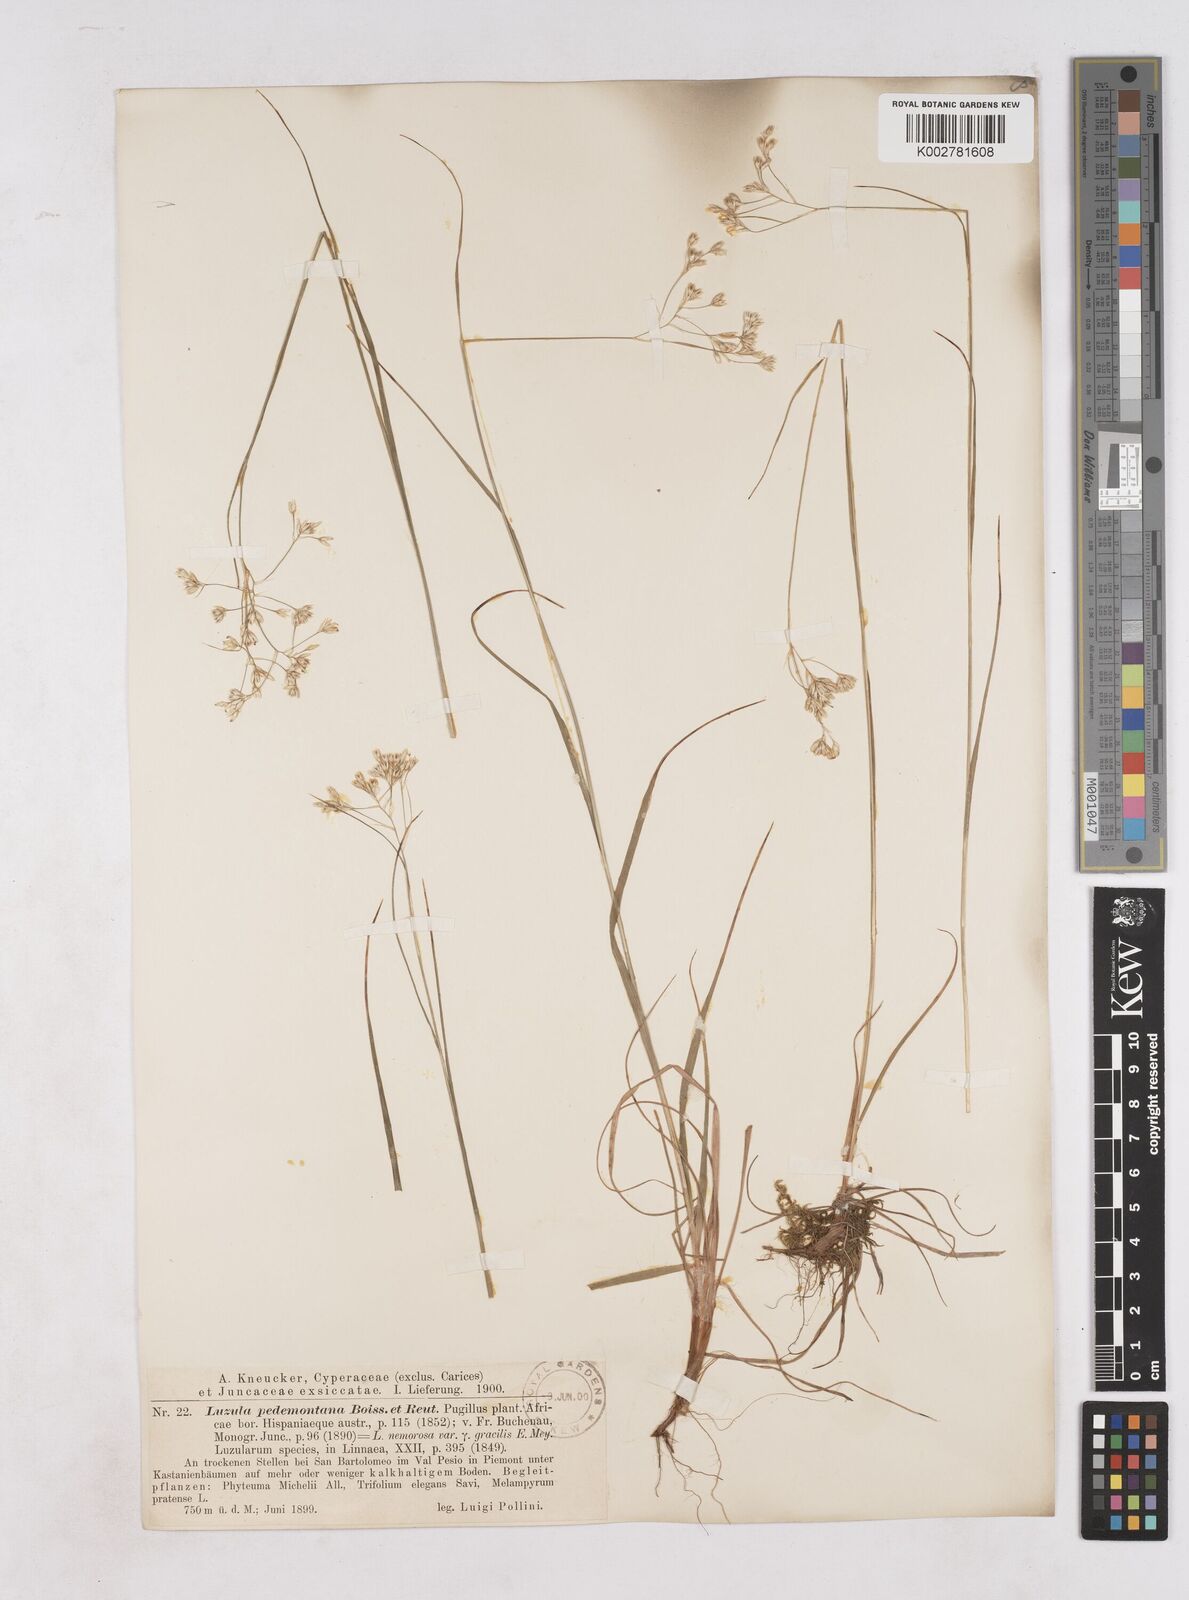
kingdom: Plantae
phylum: Tracheophyta
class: Liliopsida
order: Poales
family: Juncaceae
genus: Luzula
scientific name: Luzula pedemontana
